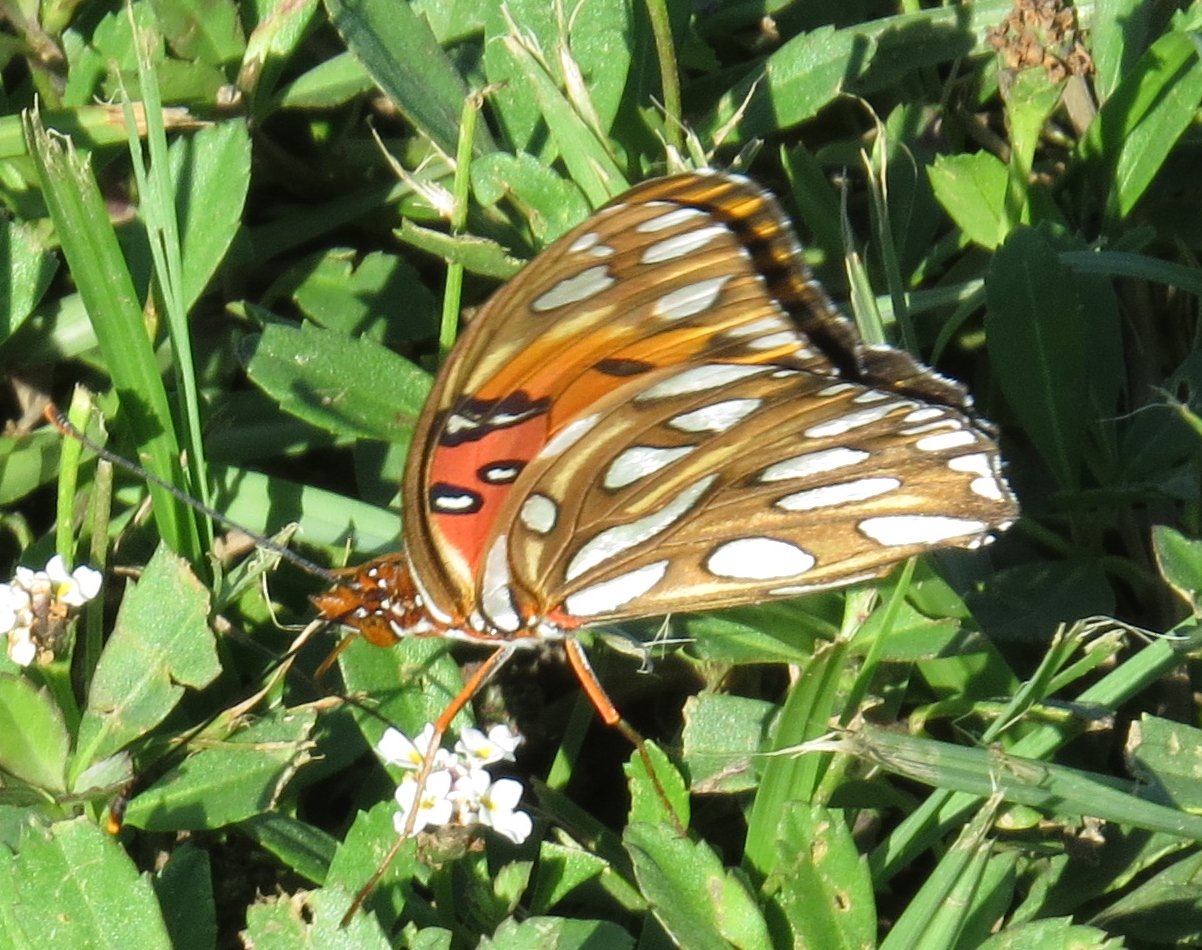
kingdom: Animalia
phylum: Arthropoda
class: Insecta
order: Lepidoptera
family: Nymphalidae
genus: Dione
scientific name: Dione vanillae
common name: Gulf Fritillary
